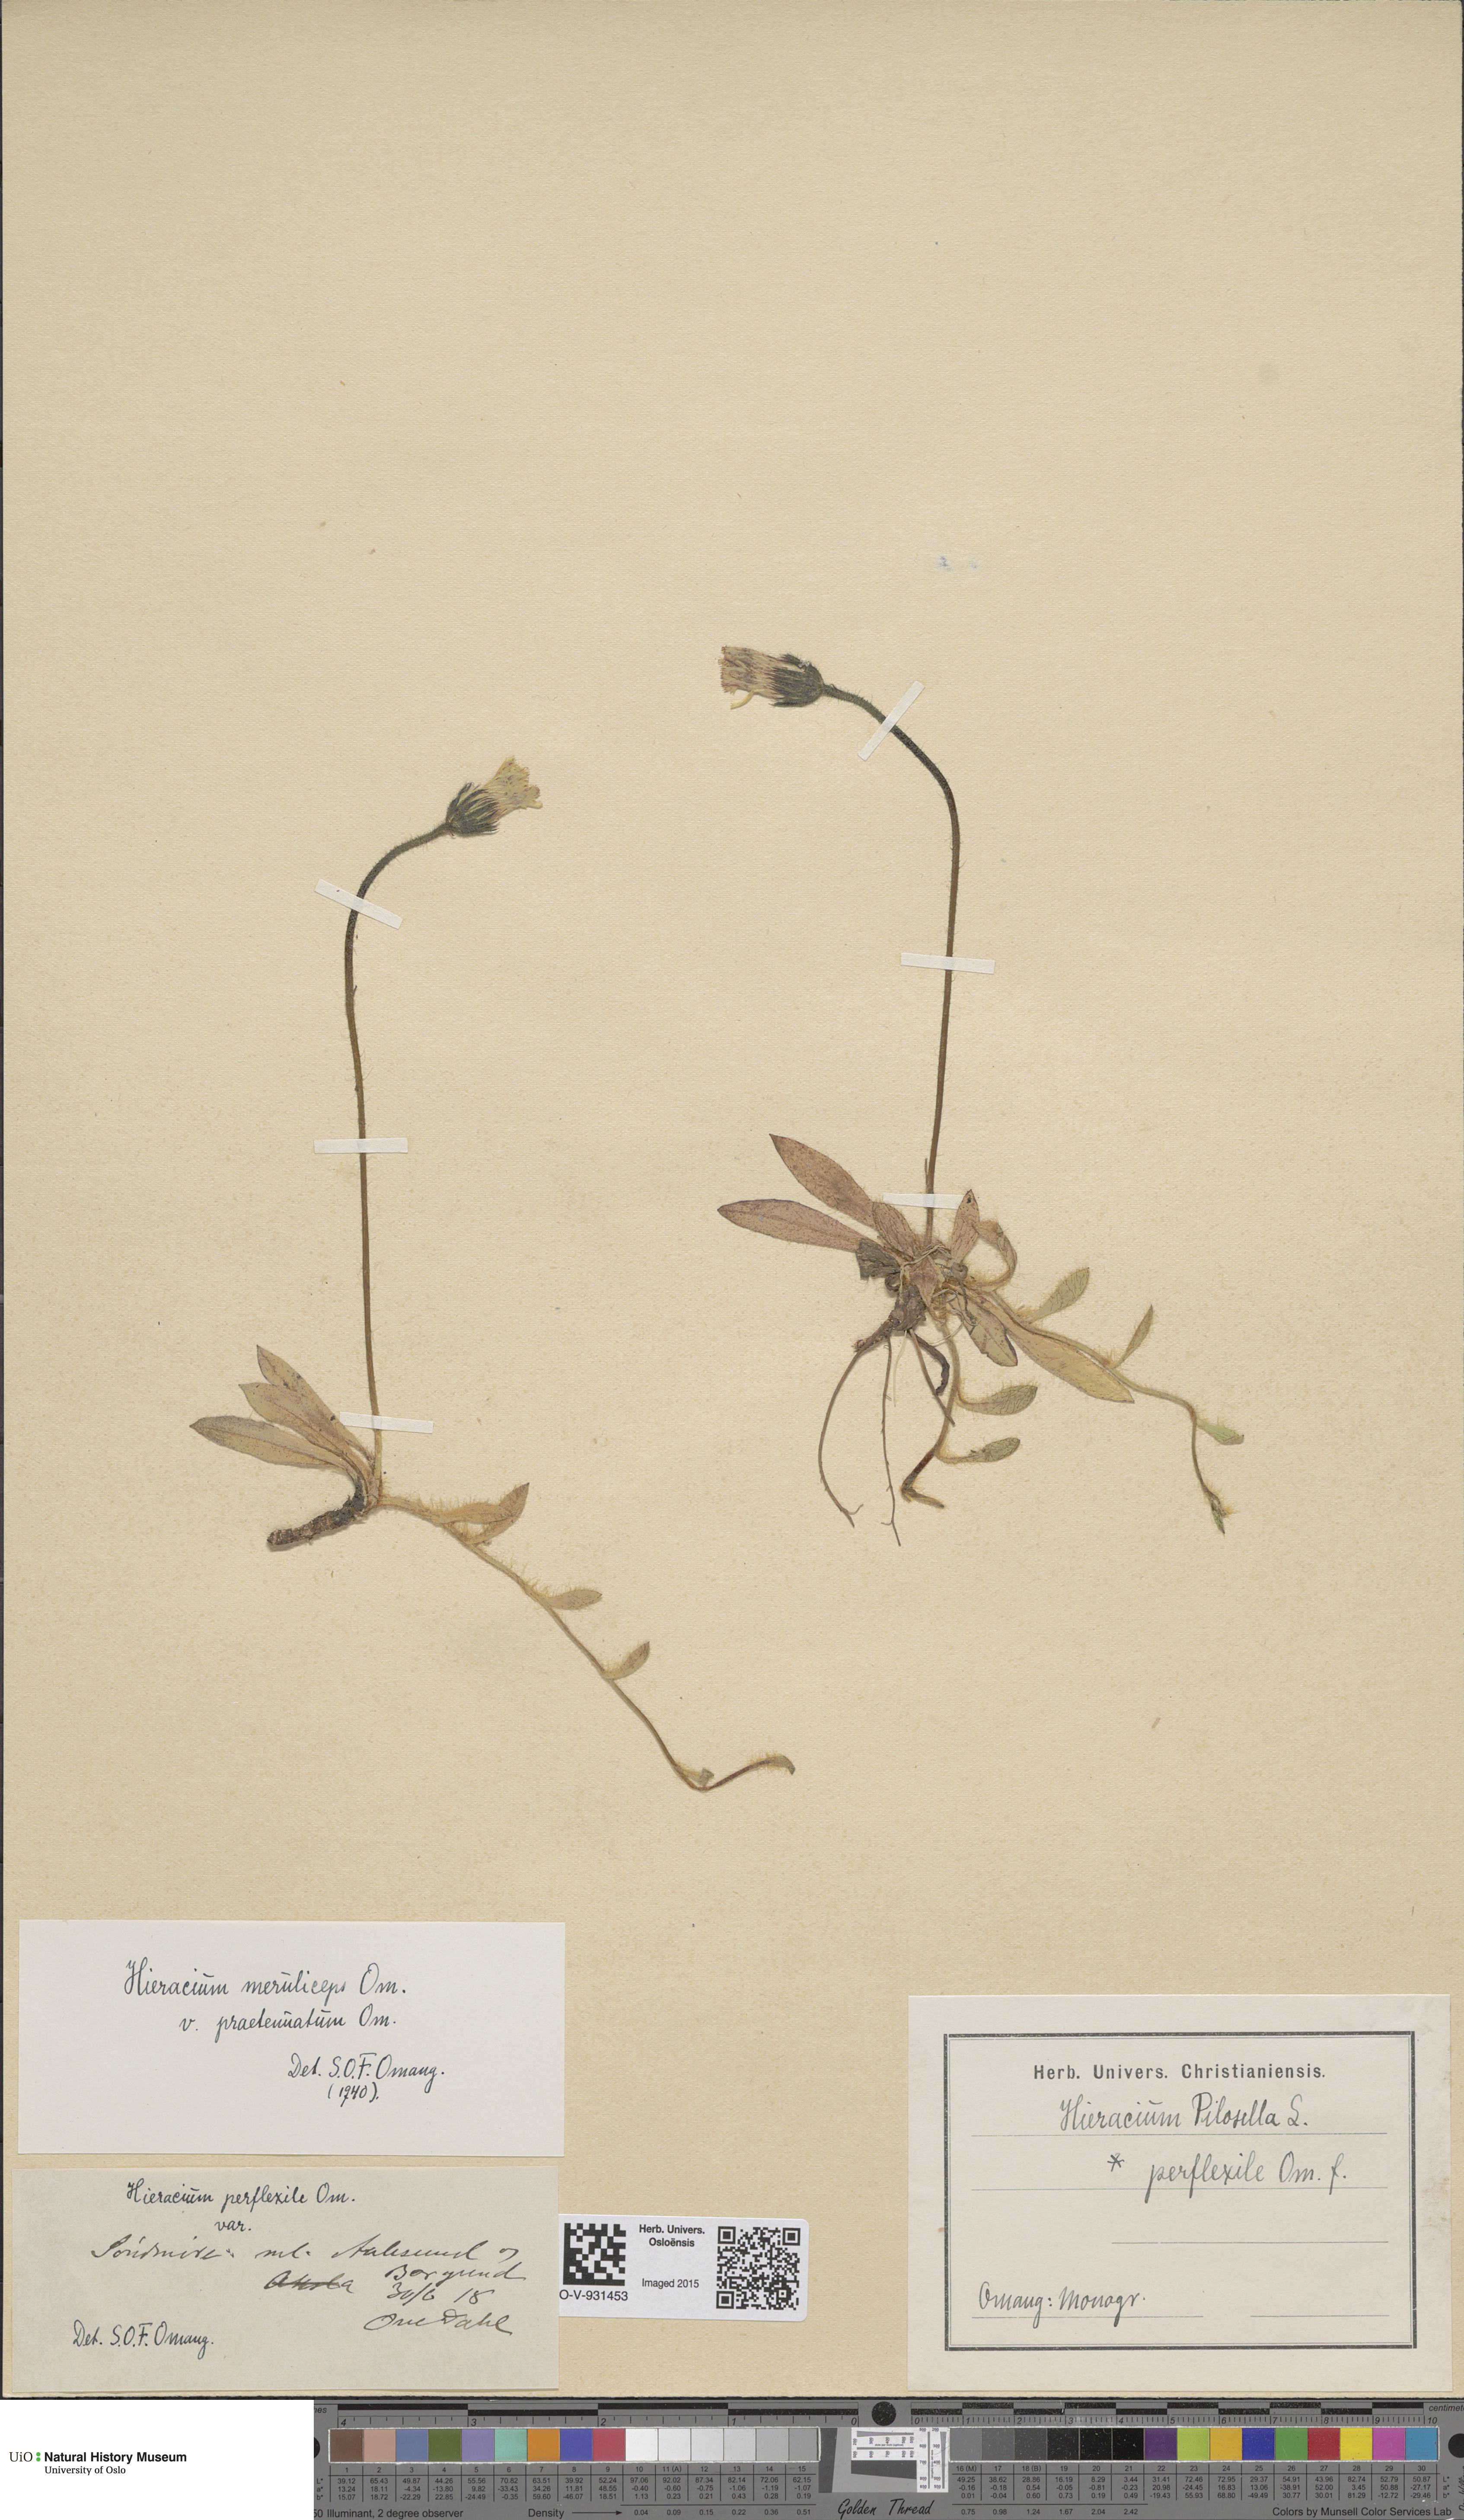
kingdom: Plantae
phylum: Tracheophyta
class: Magnoliopsida
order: Asterales
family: Asteraceae
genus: Pilosella
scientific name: Pilosella officinarum
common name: Mouse-ear hawkweed
